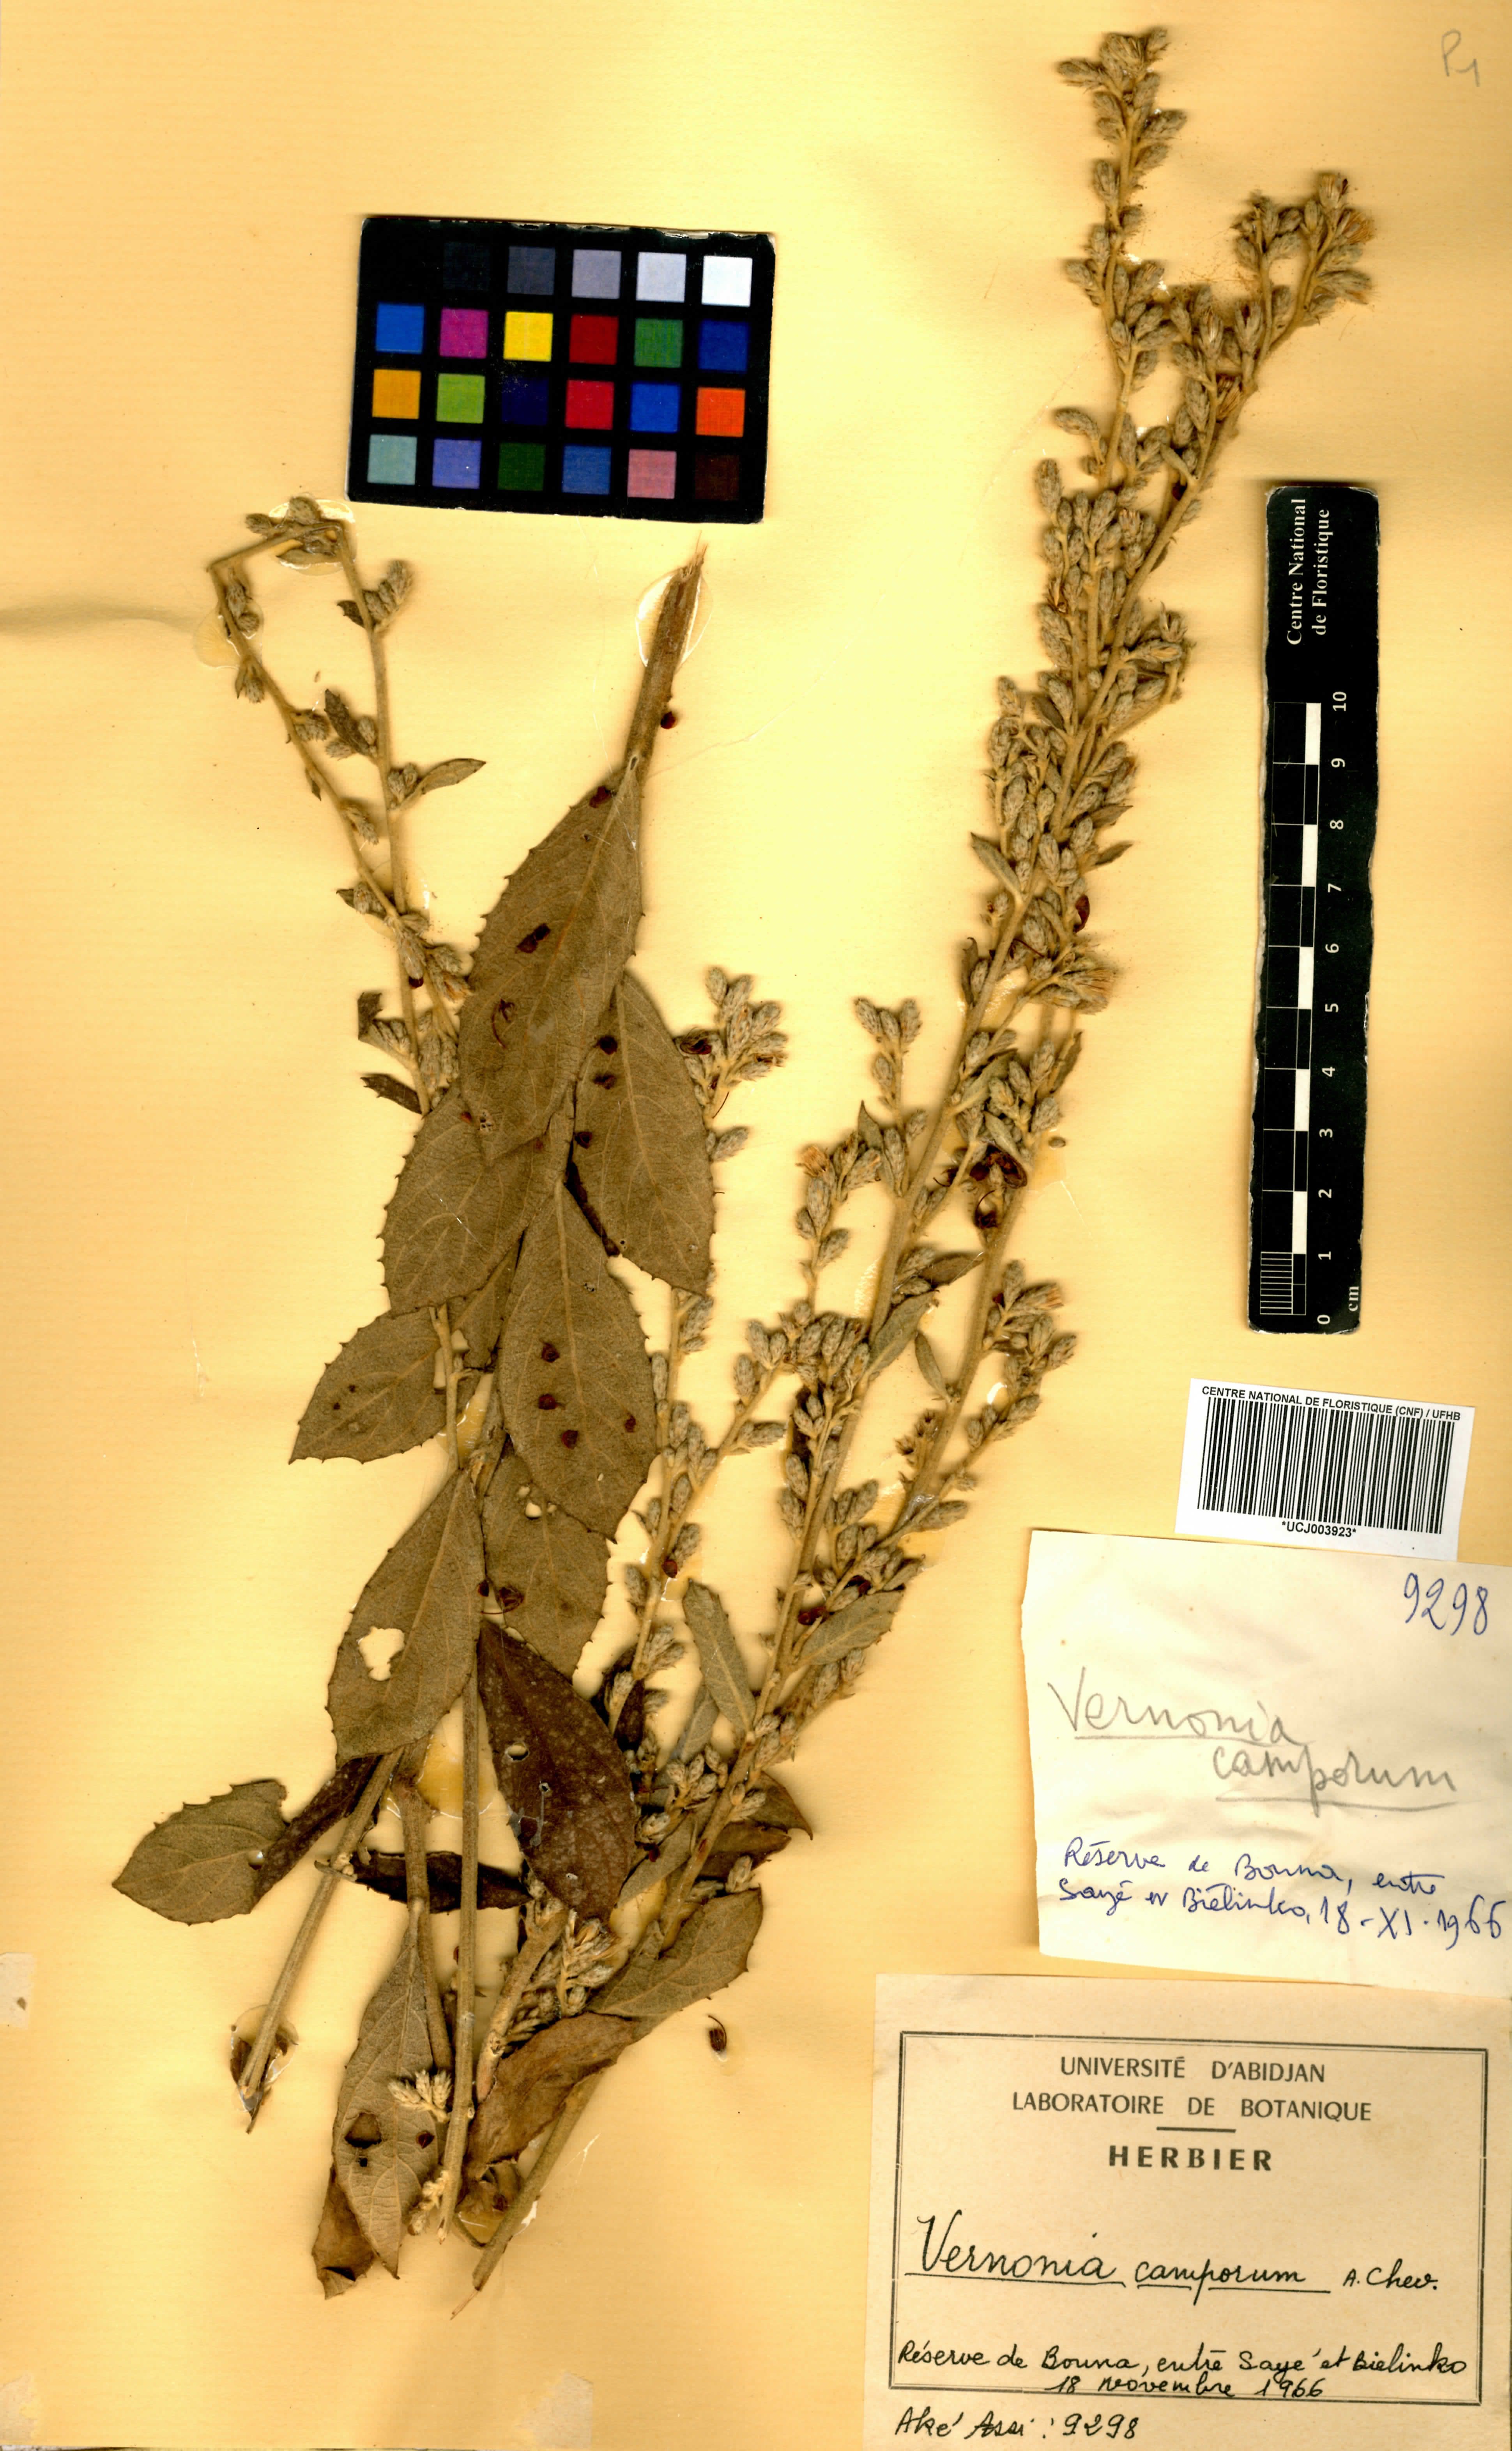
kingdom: Plantae
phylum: Tracheophyta
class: Magnoliopsida
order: Asterales
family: Asteraceae
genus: Vernoniastrum
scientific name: Vernoniastrum camporum
